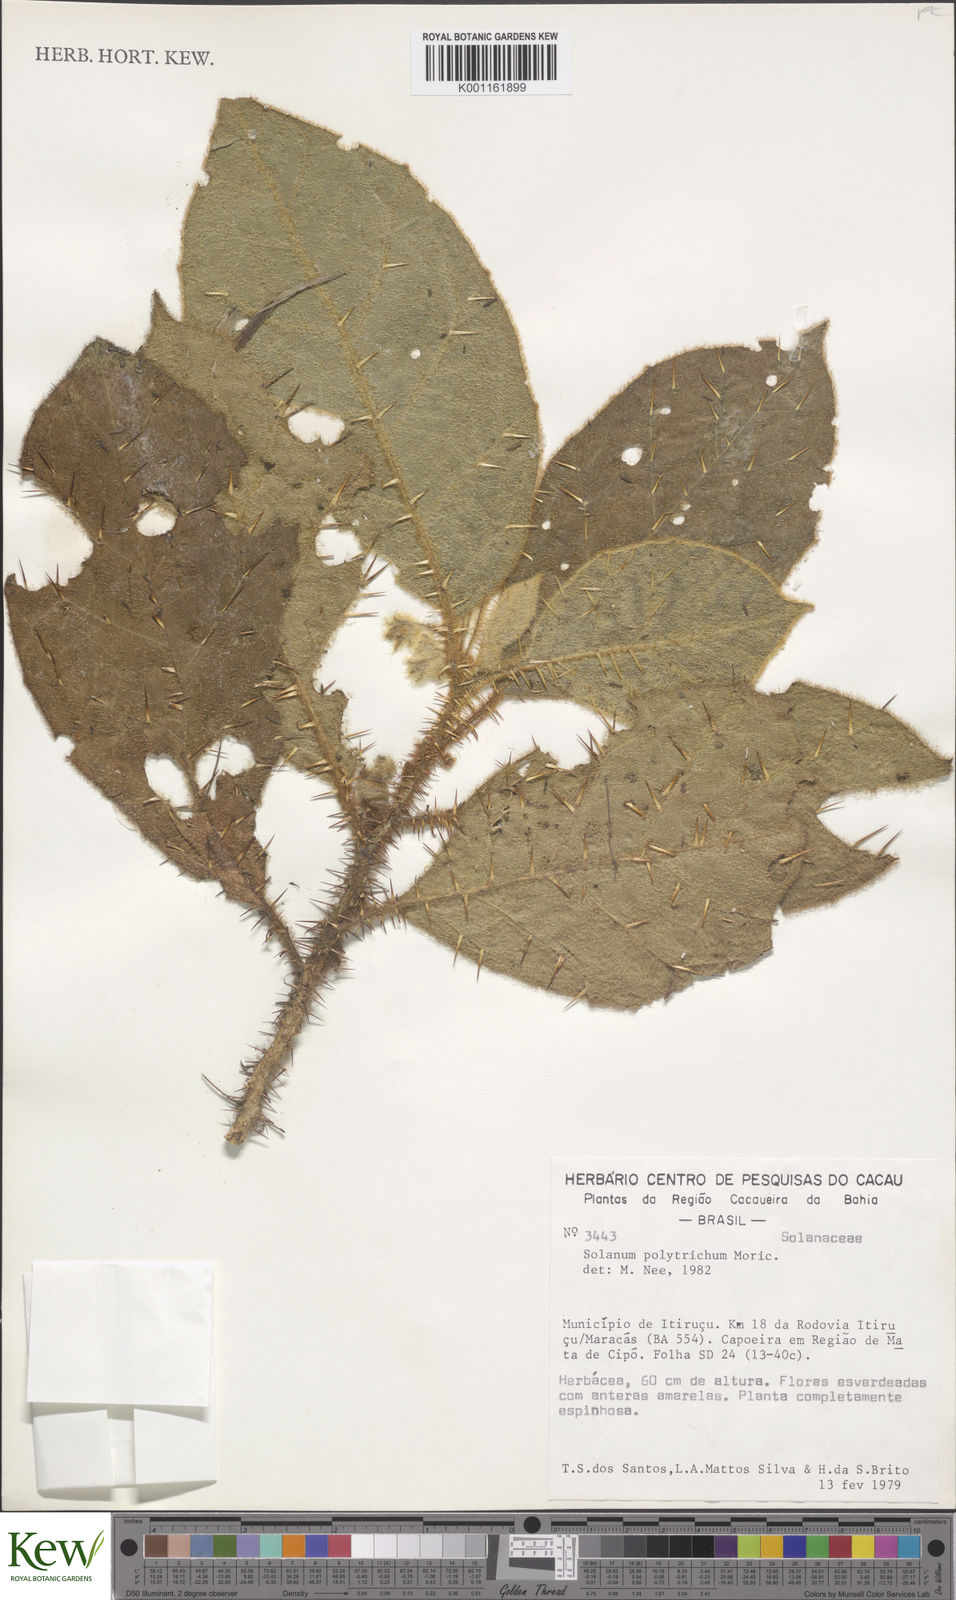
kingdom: Plantae
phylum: Tracheophyta
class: Magnoliopsida
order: Solanales
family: Solanaceae
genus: Solanum
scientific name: Solanum polytrichum
